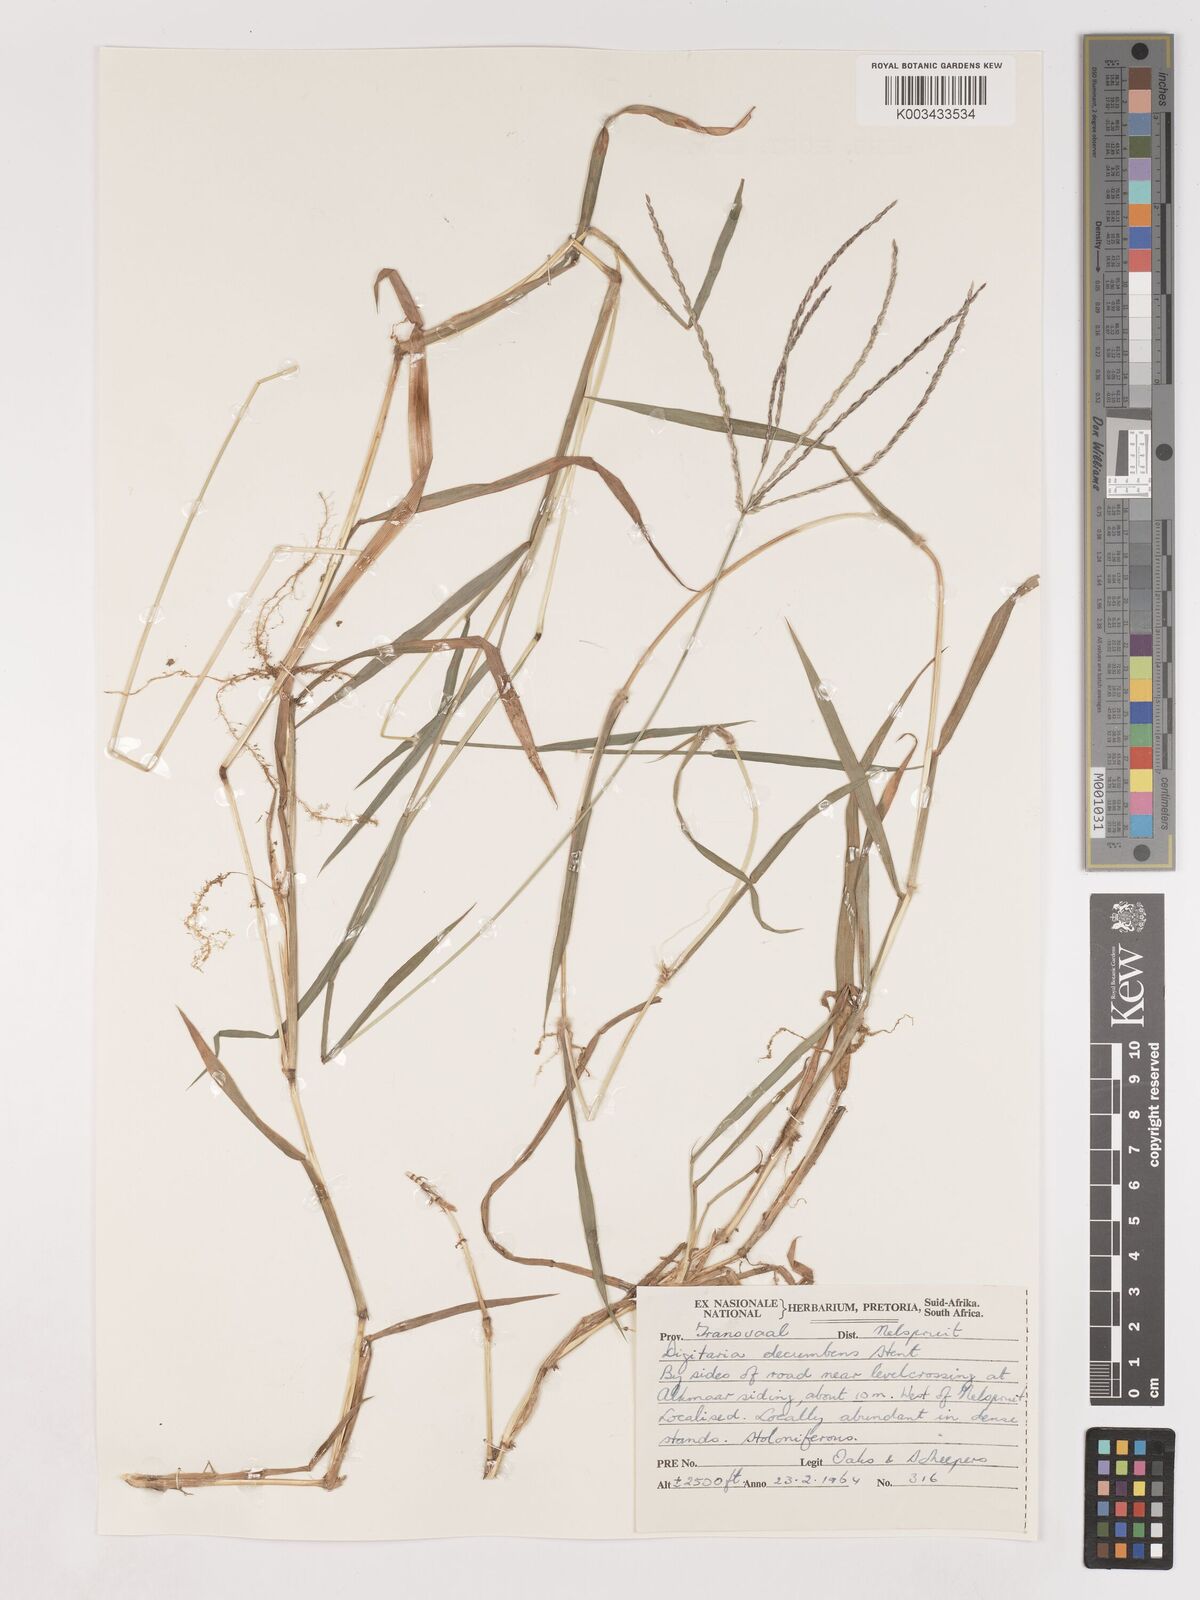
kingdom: Plantae
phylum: Tracheophyta
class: Liliopsida
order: Poales
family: Poaceae
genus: Digitaria
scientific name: Digitaria eriantha
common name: Digitgrass
